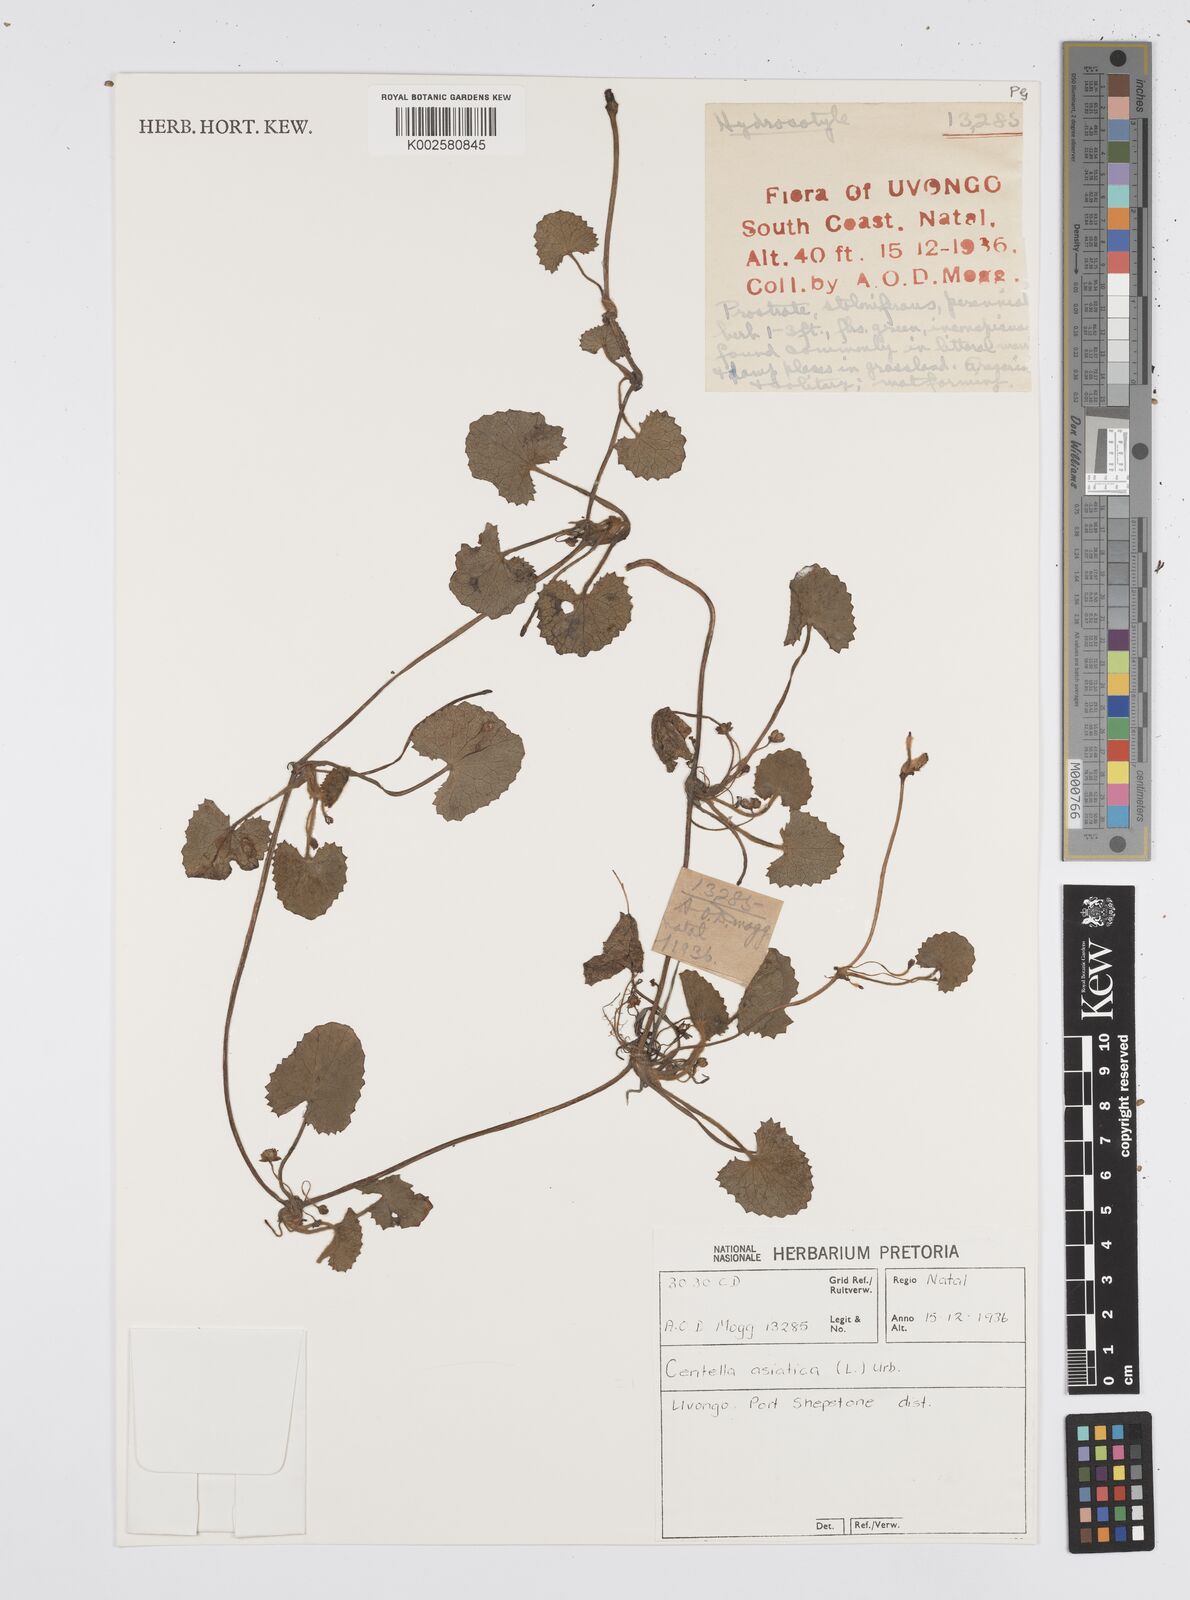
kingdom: Plantae
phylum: Tracheophyta
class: Magnoliopsida
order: Apiales
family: Apiaceae
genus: Centella
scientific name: Centella coriacea
